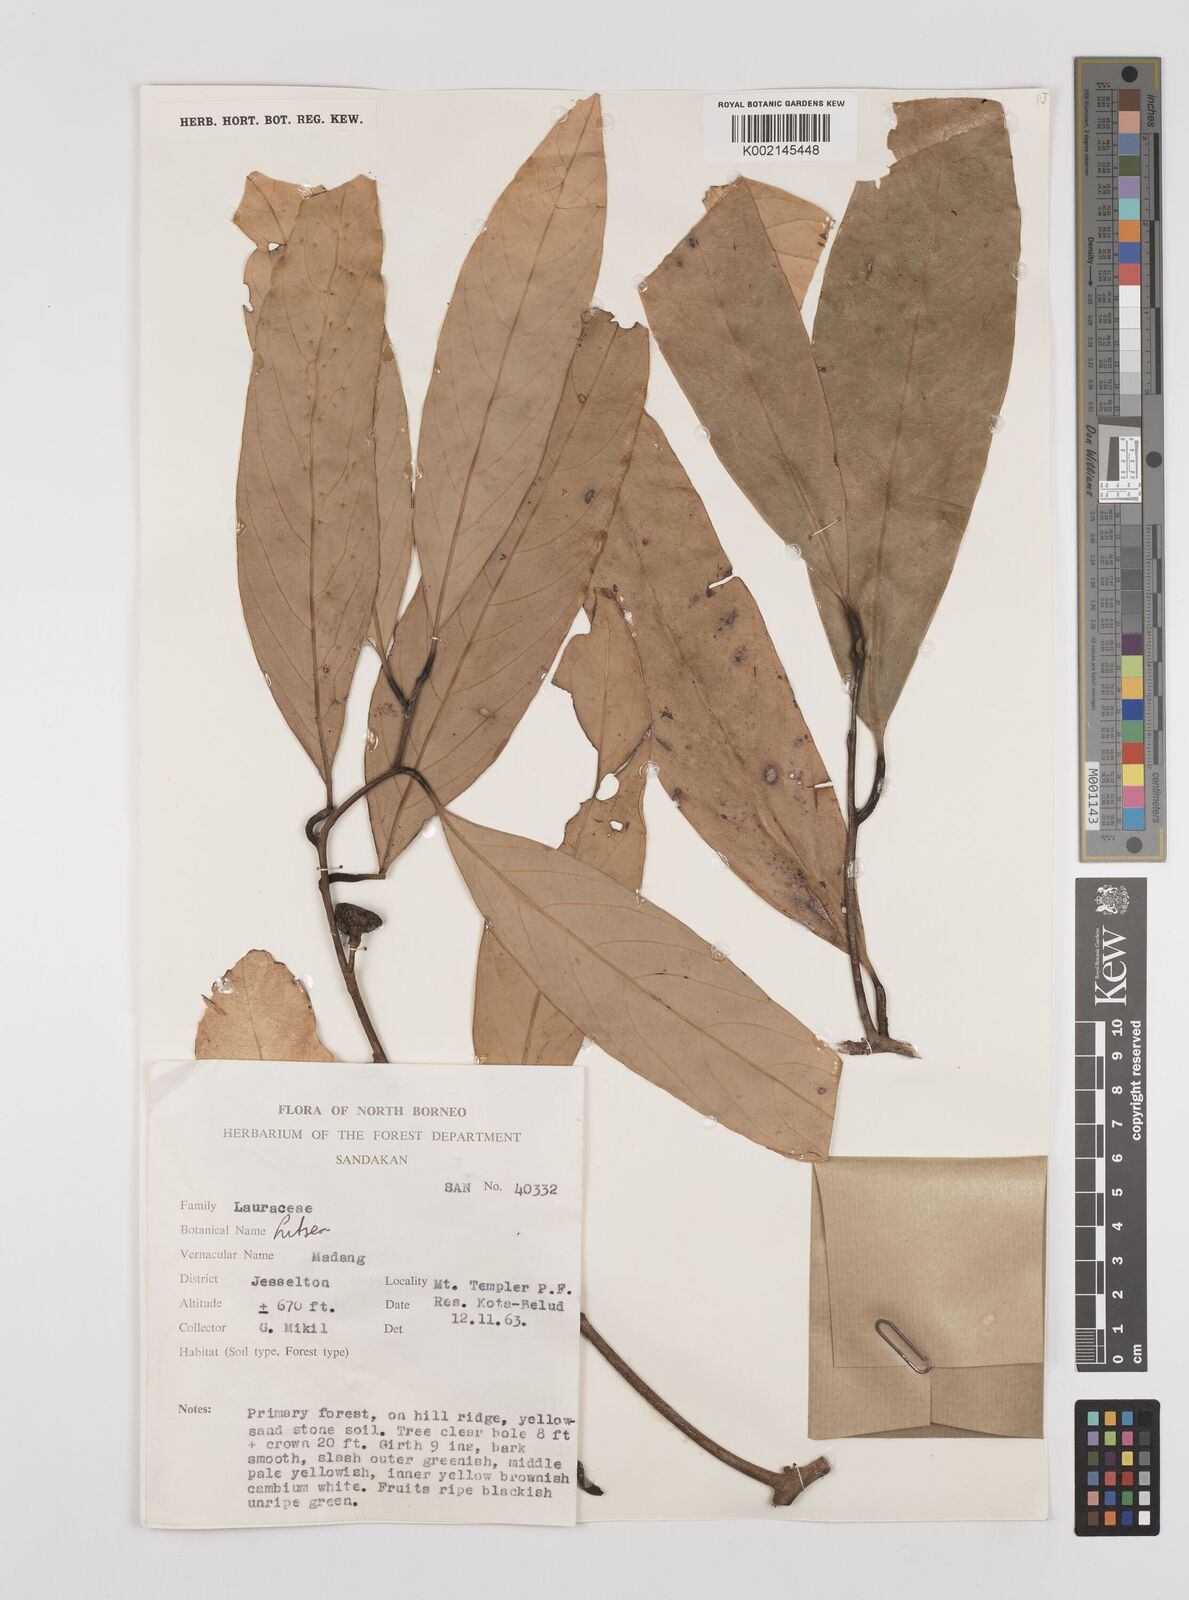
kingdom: Plantae
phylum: Tracheophyta
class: Magnoliopsida
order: Laurales
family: Lauraceae
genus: Litsea
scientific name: Litsea
